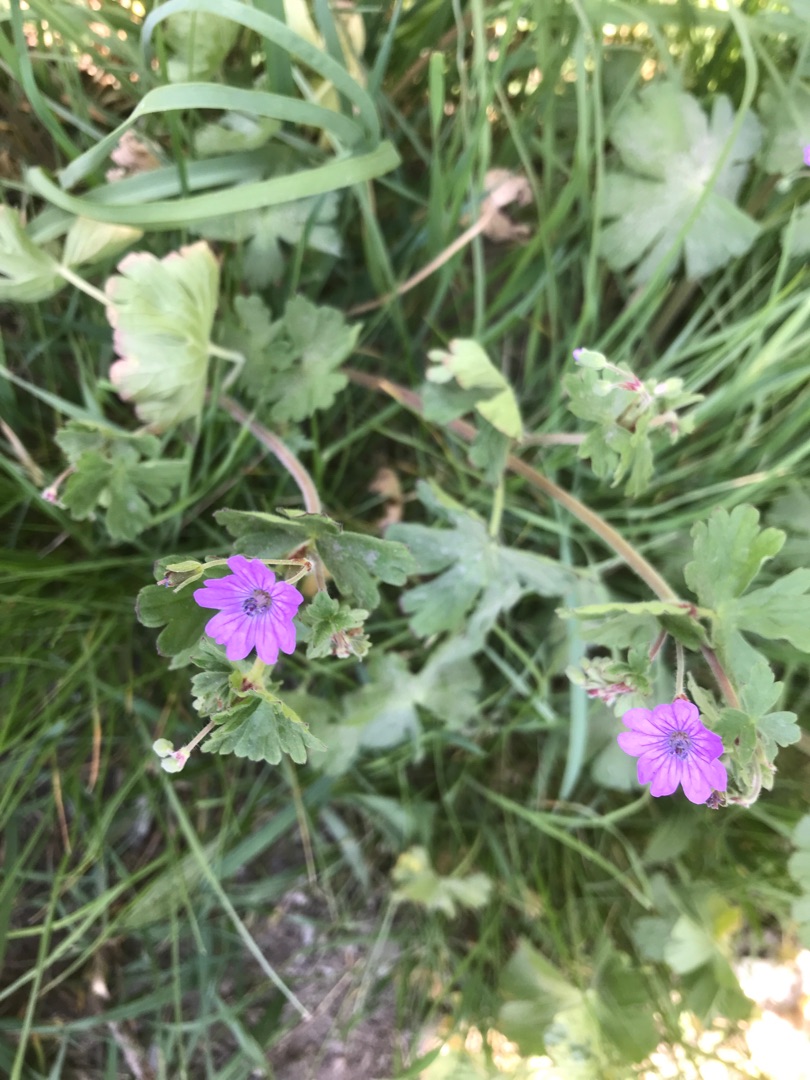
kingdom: Plantae
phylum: Tracheophyta
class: Magnoliopsida
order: Geraniales
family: Geraniaceae
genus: Geranium
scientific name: Geranium pyrenaicum
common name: Pyrenæisk storkenæb
